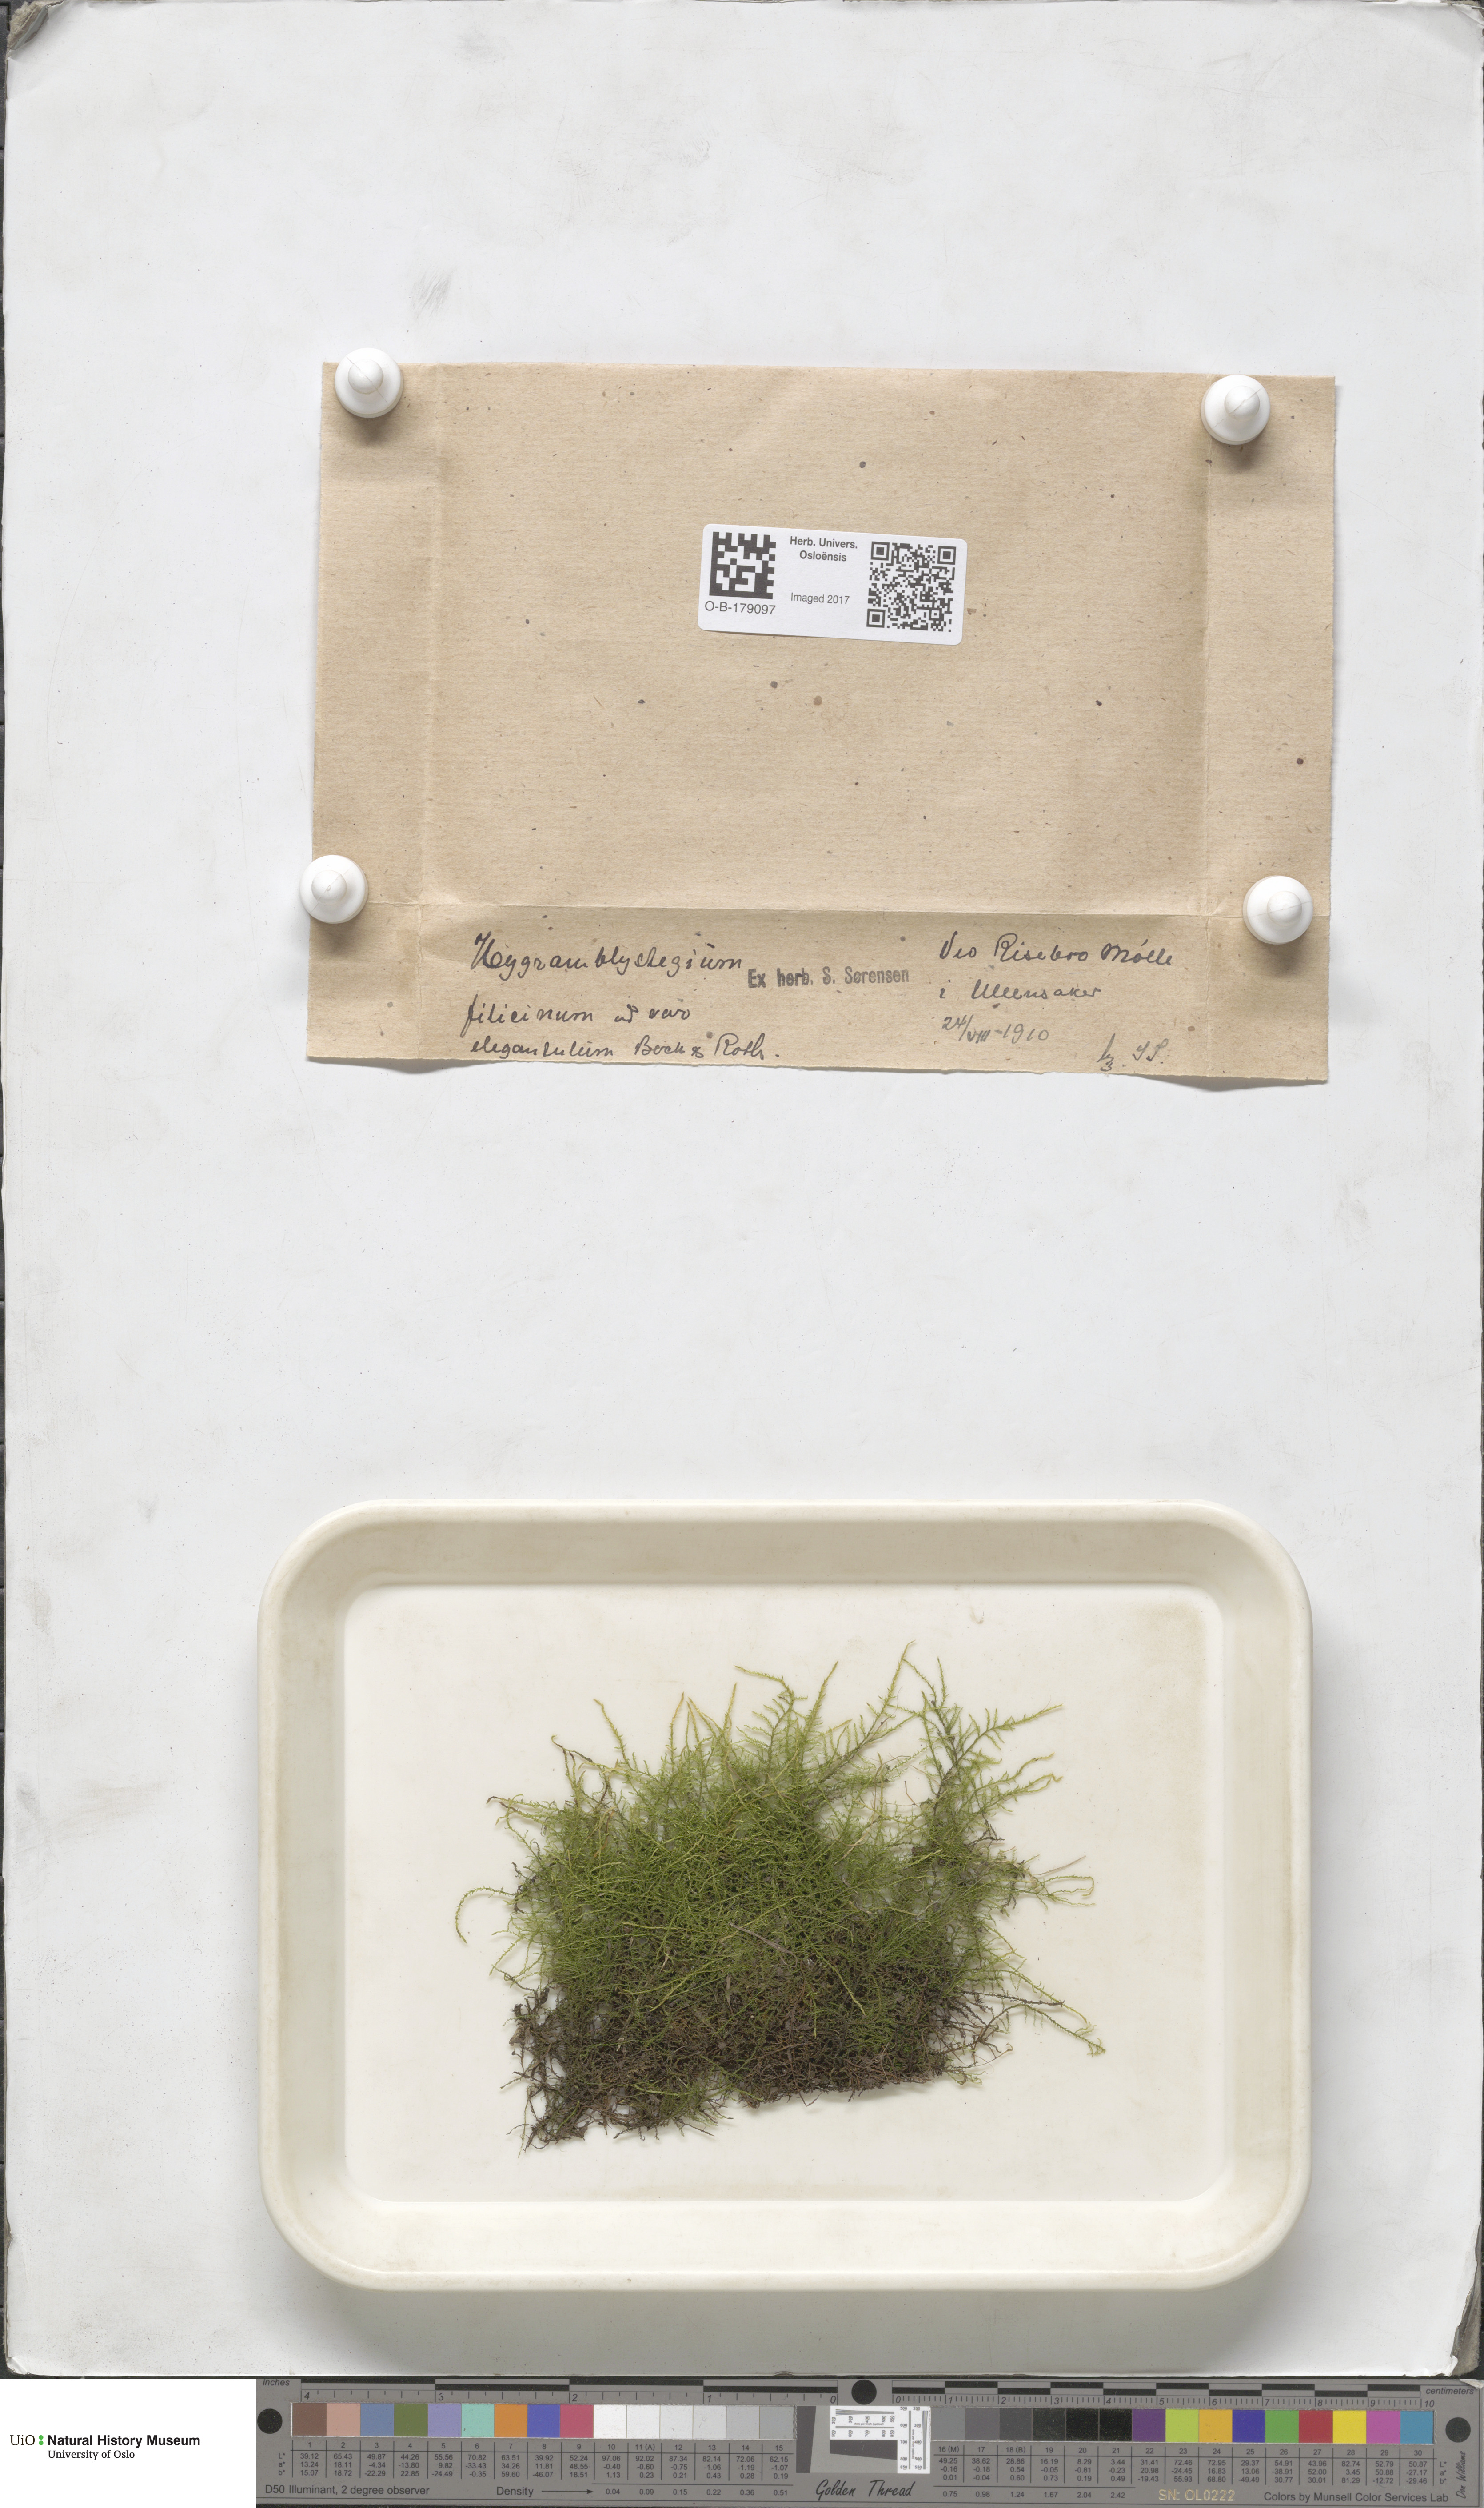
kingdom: Plantae
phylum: Bryophyta
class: Bryopsida
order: Hypnales
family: Amblystegiaceae
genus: Cratoneuron
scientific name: Cratoneuron filicinum
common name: Fern-leaved hook moss
